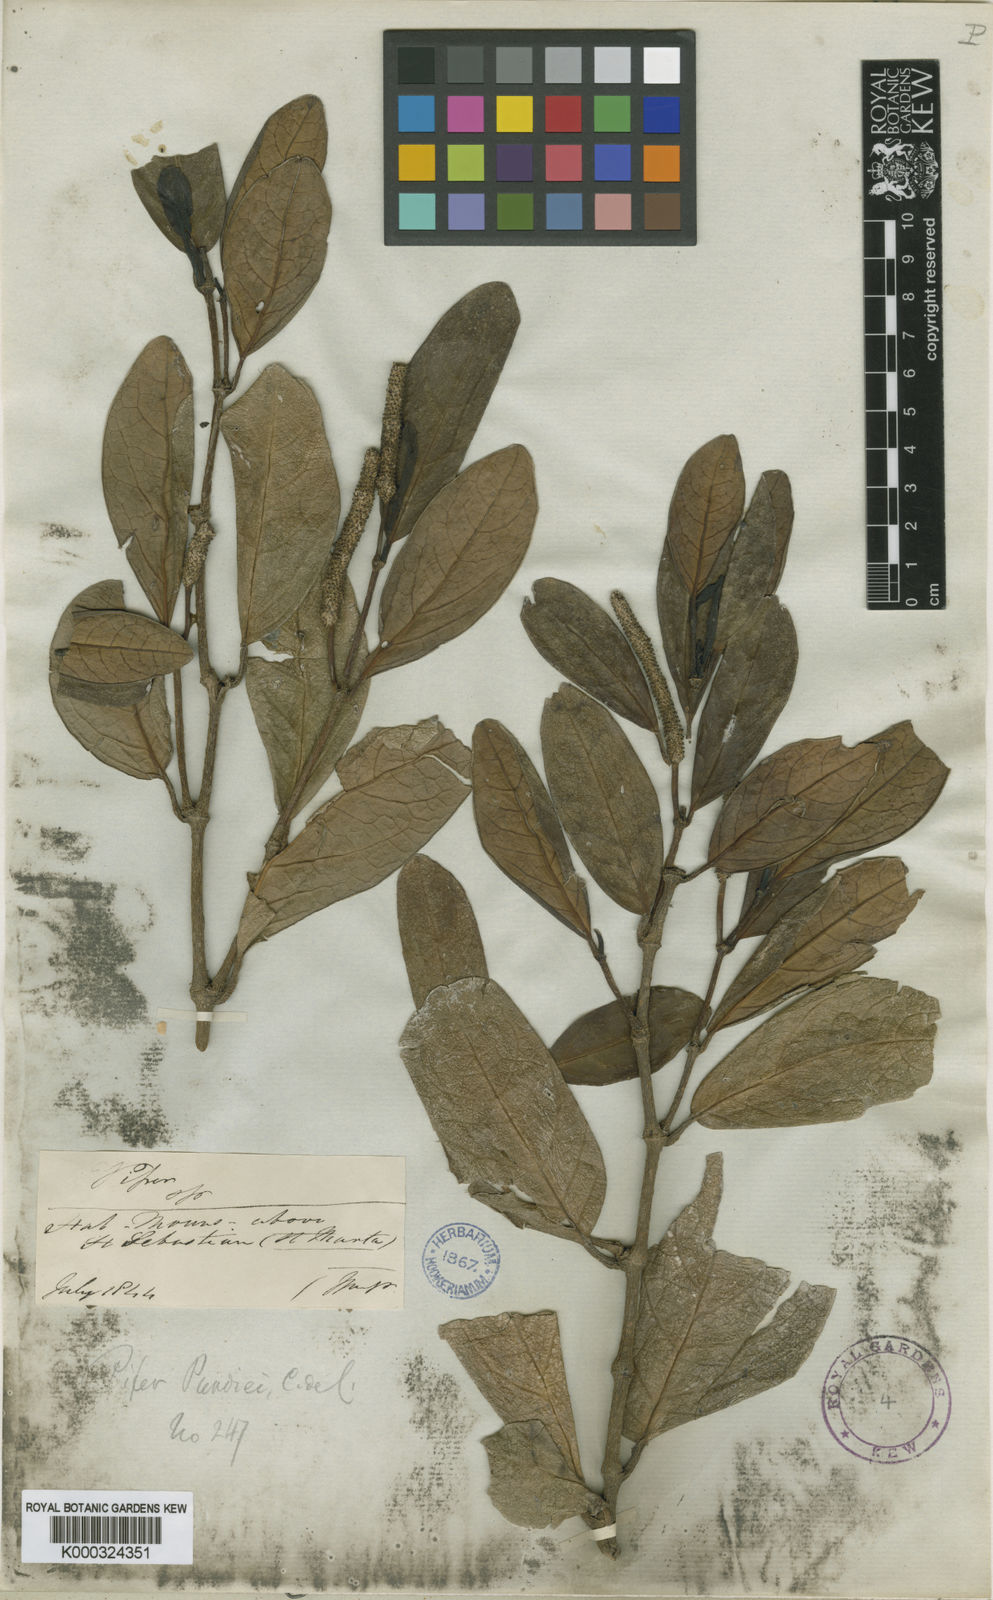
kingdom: Plantae
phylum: Tracheophyta
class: Magnoliopsida
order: Piperales
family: Piperaceae
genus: Piper
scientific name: Piper purdiei
